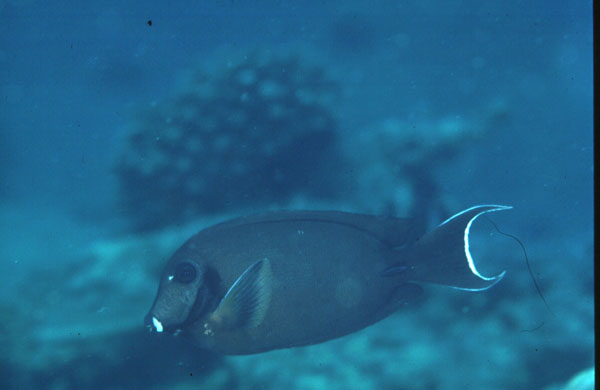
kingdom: Animalia
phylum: Chordata
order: Perciformes
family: Acanthuridae
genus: Acanthurus
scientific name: Acanthurus tristis
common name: Blackcheek surgeonfish
